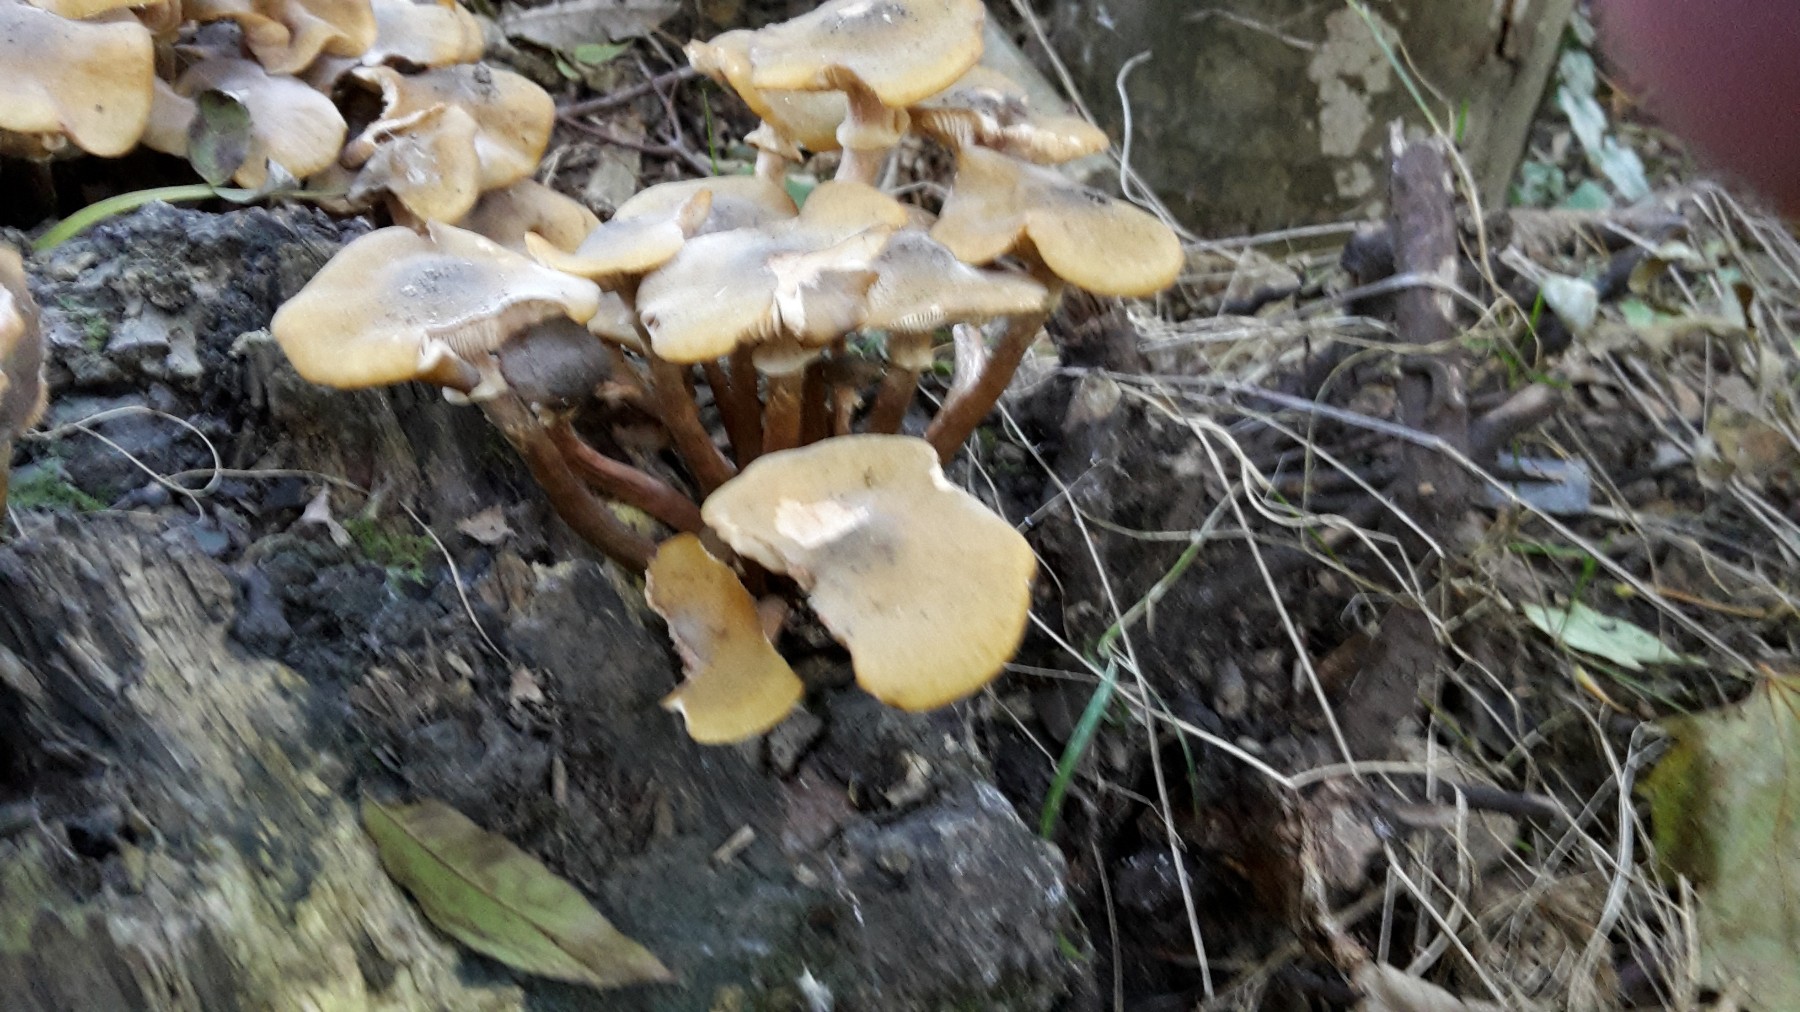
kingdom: Fungi
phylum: Basidiomycota
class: Agaricomycetes
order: Agaricales
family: Physalacriaceae
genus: Armillaria
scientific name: Armillaria mellea
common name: ægte honningsvamp
